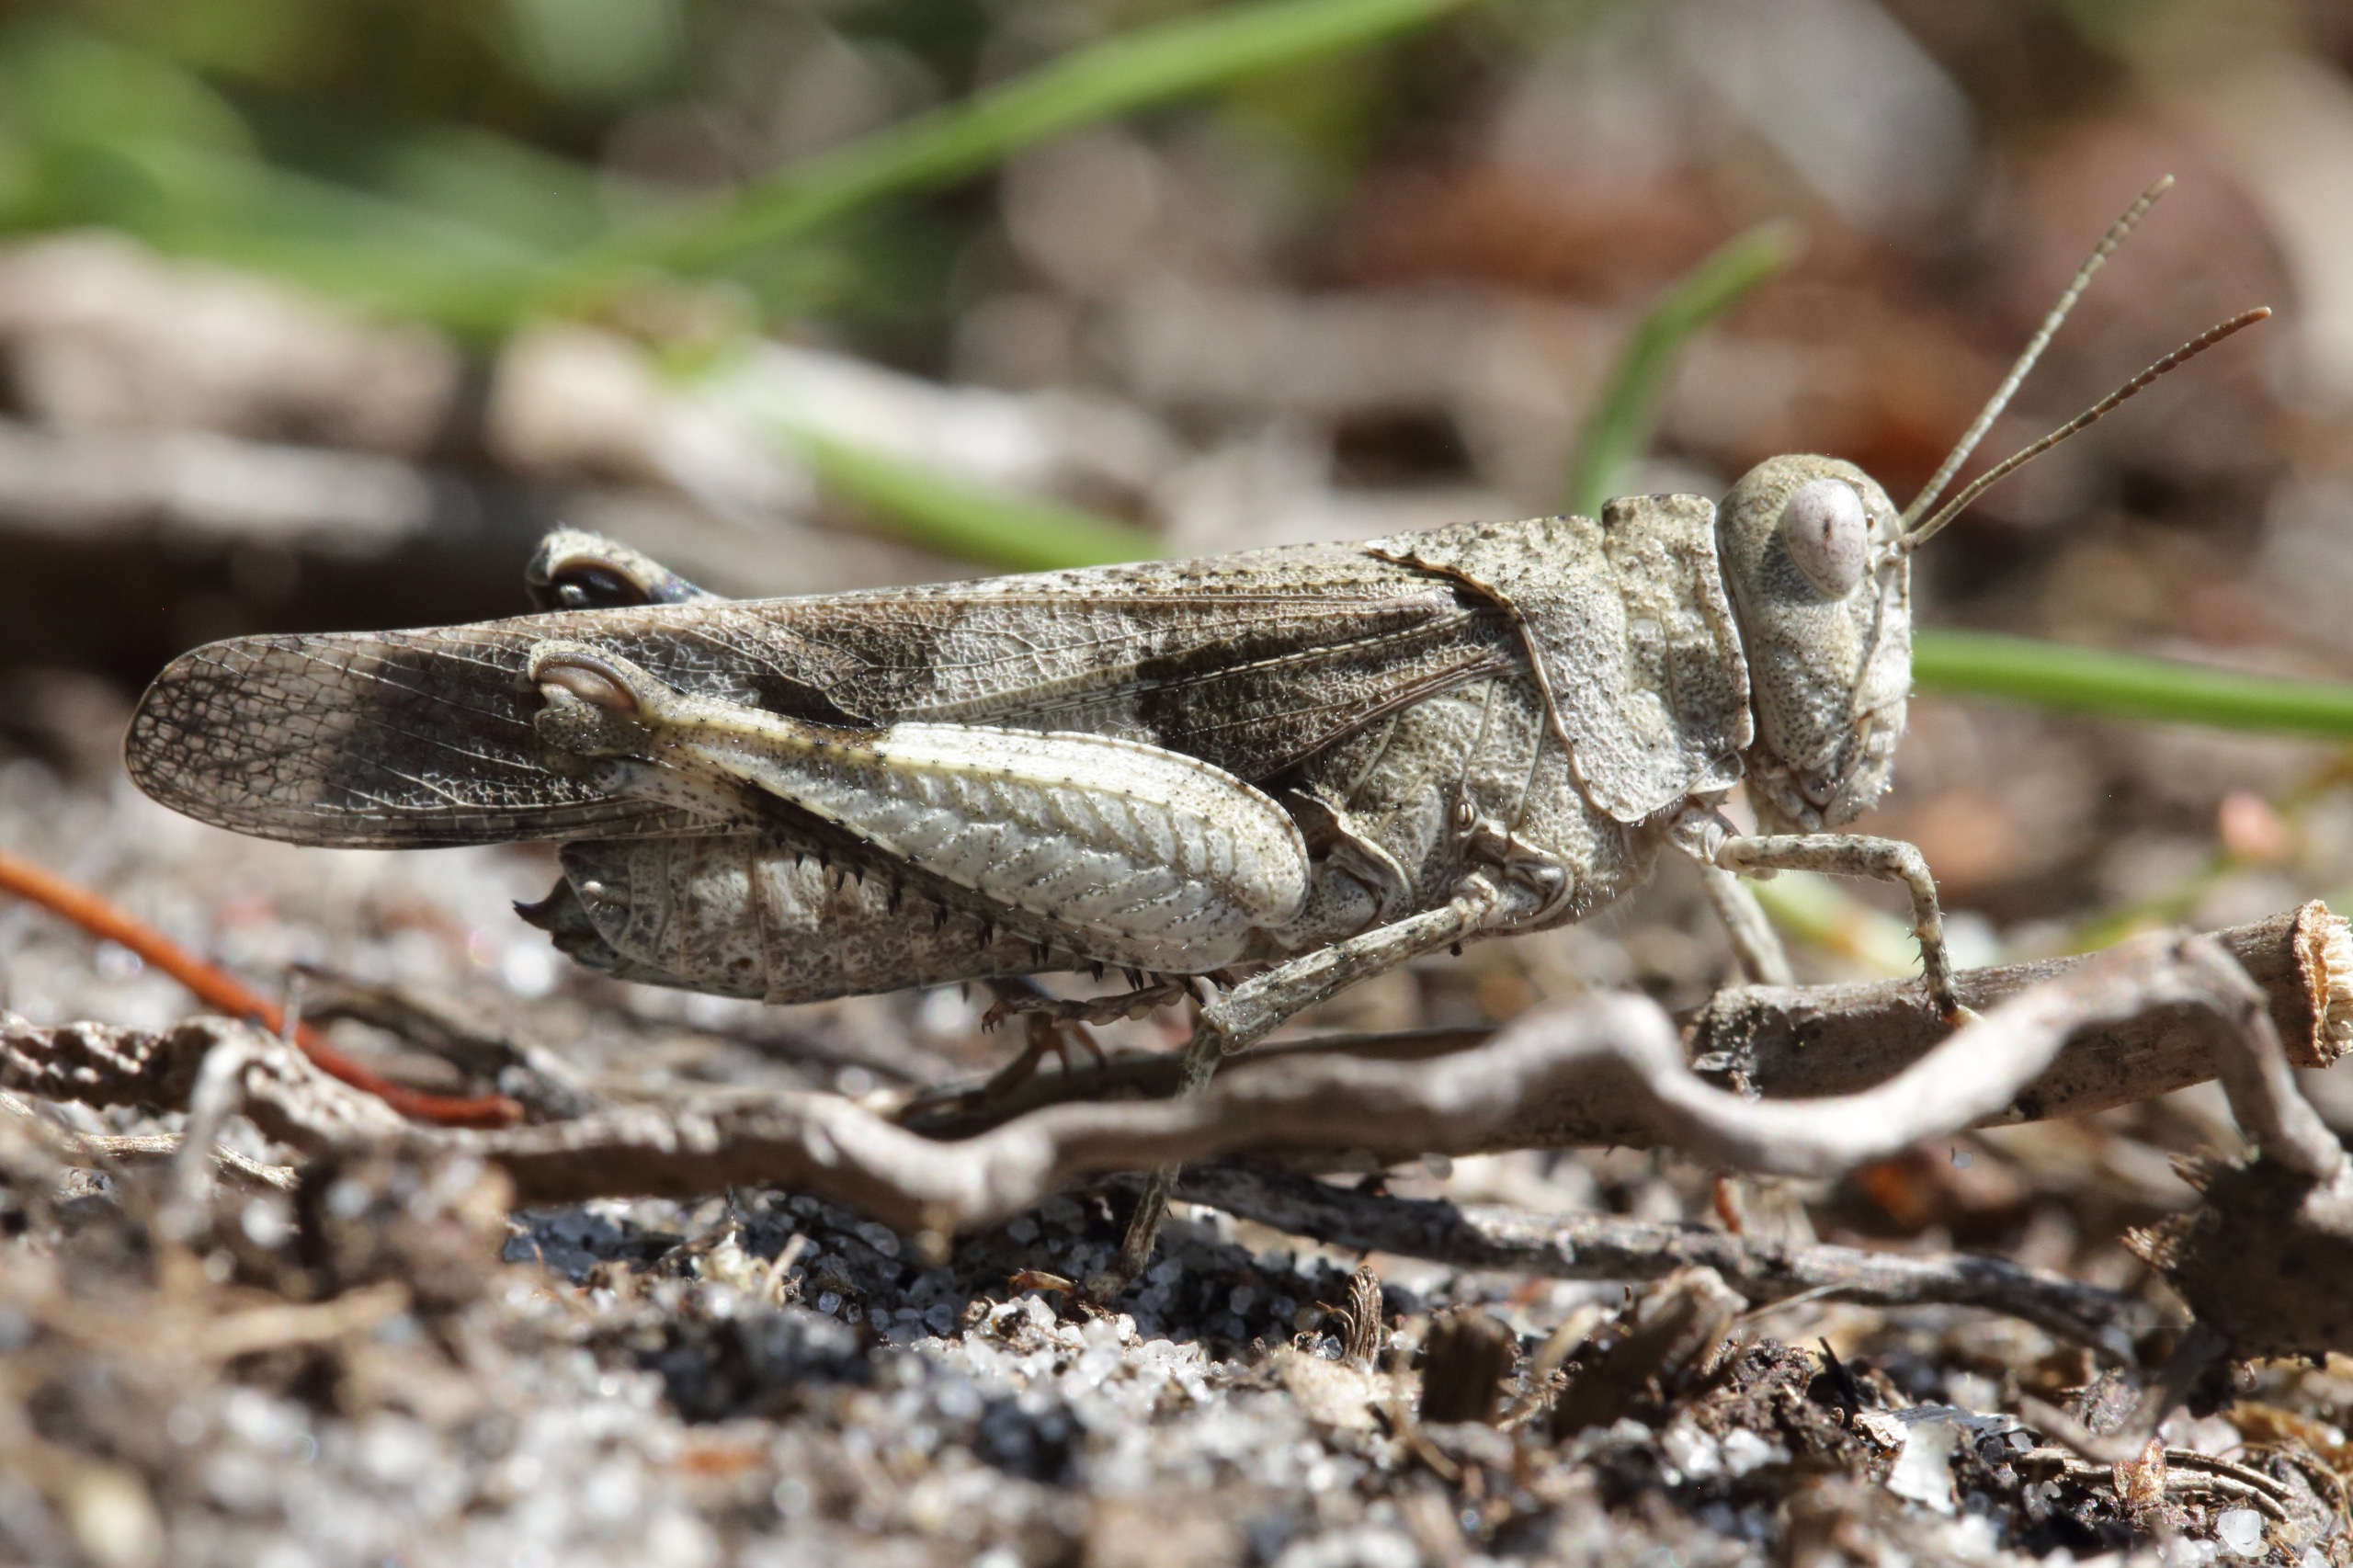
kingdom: Animalia
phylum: Arthropoda
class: Insecta
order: Orthoptera
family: Acrididae
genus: Oedipoda
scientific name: Oedipoda caerulescens
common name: Blåvinget ørkengræshoppe
